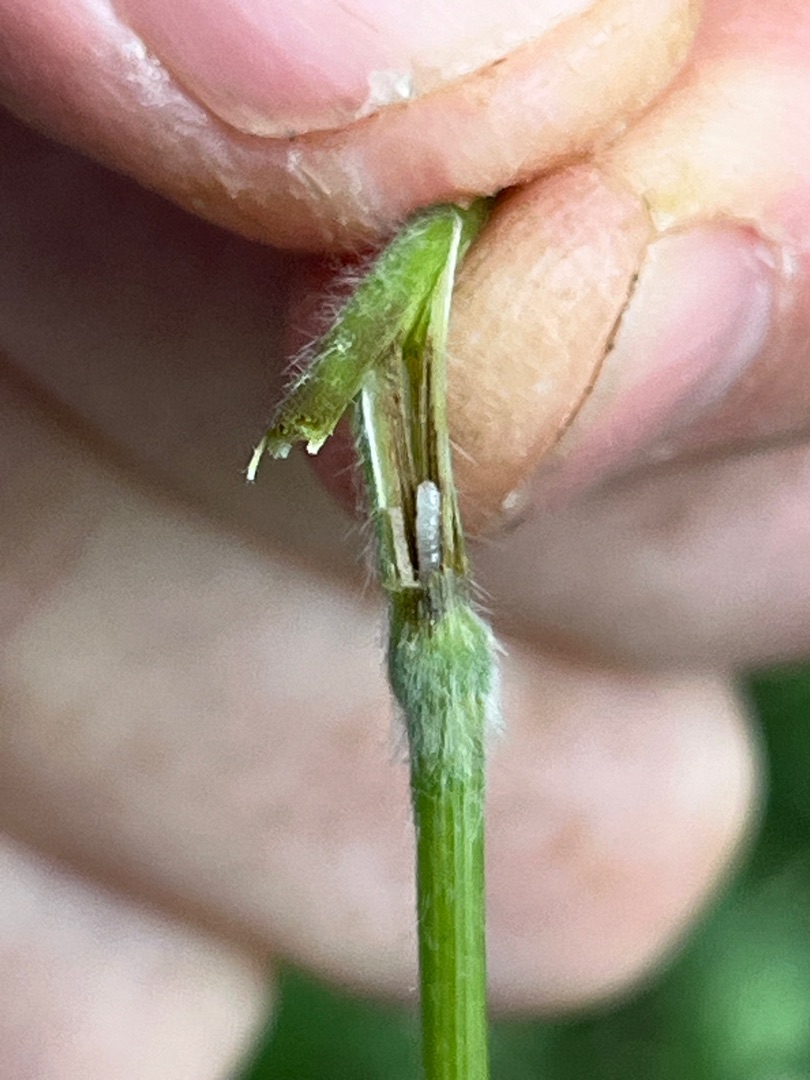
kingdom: Animalia
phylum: Arthropoda
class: Insecta
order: Diptera
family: Cecidomyiidae
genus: Mayetiola
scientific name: Mayetiola hellwigi
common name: Stilkaksgalmyg
